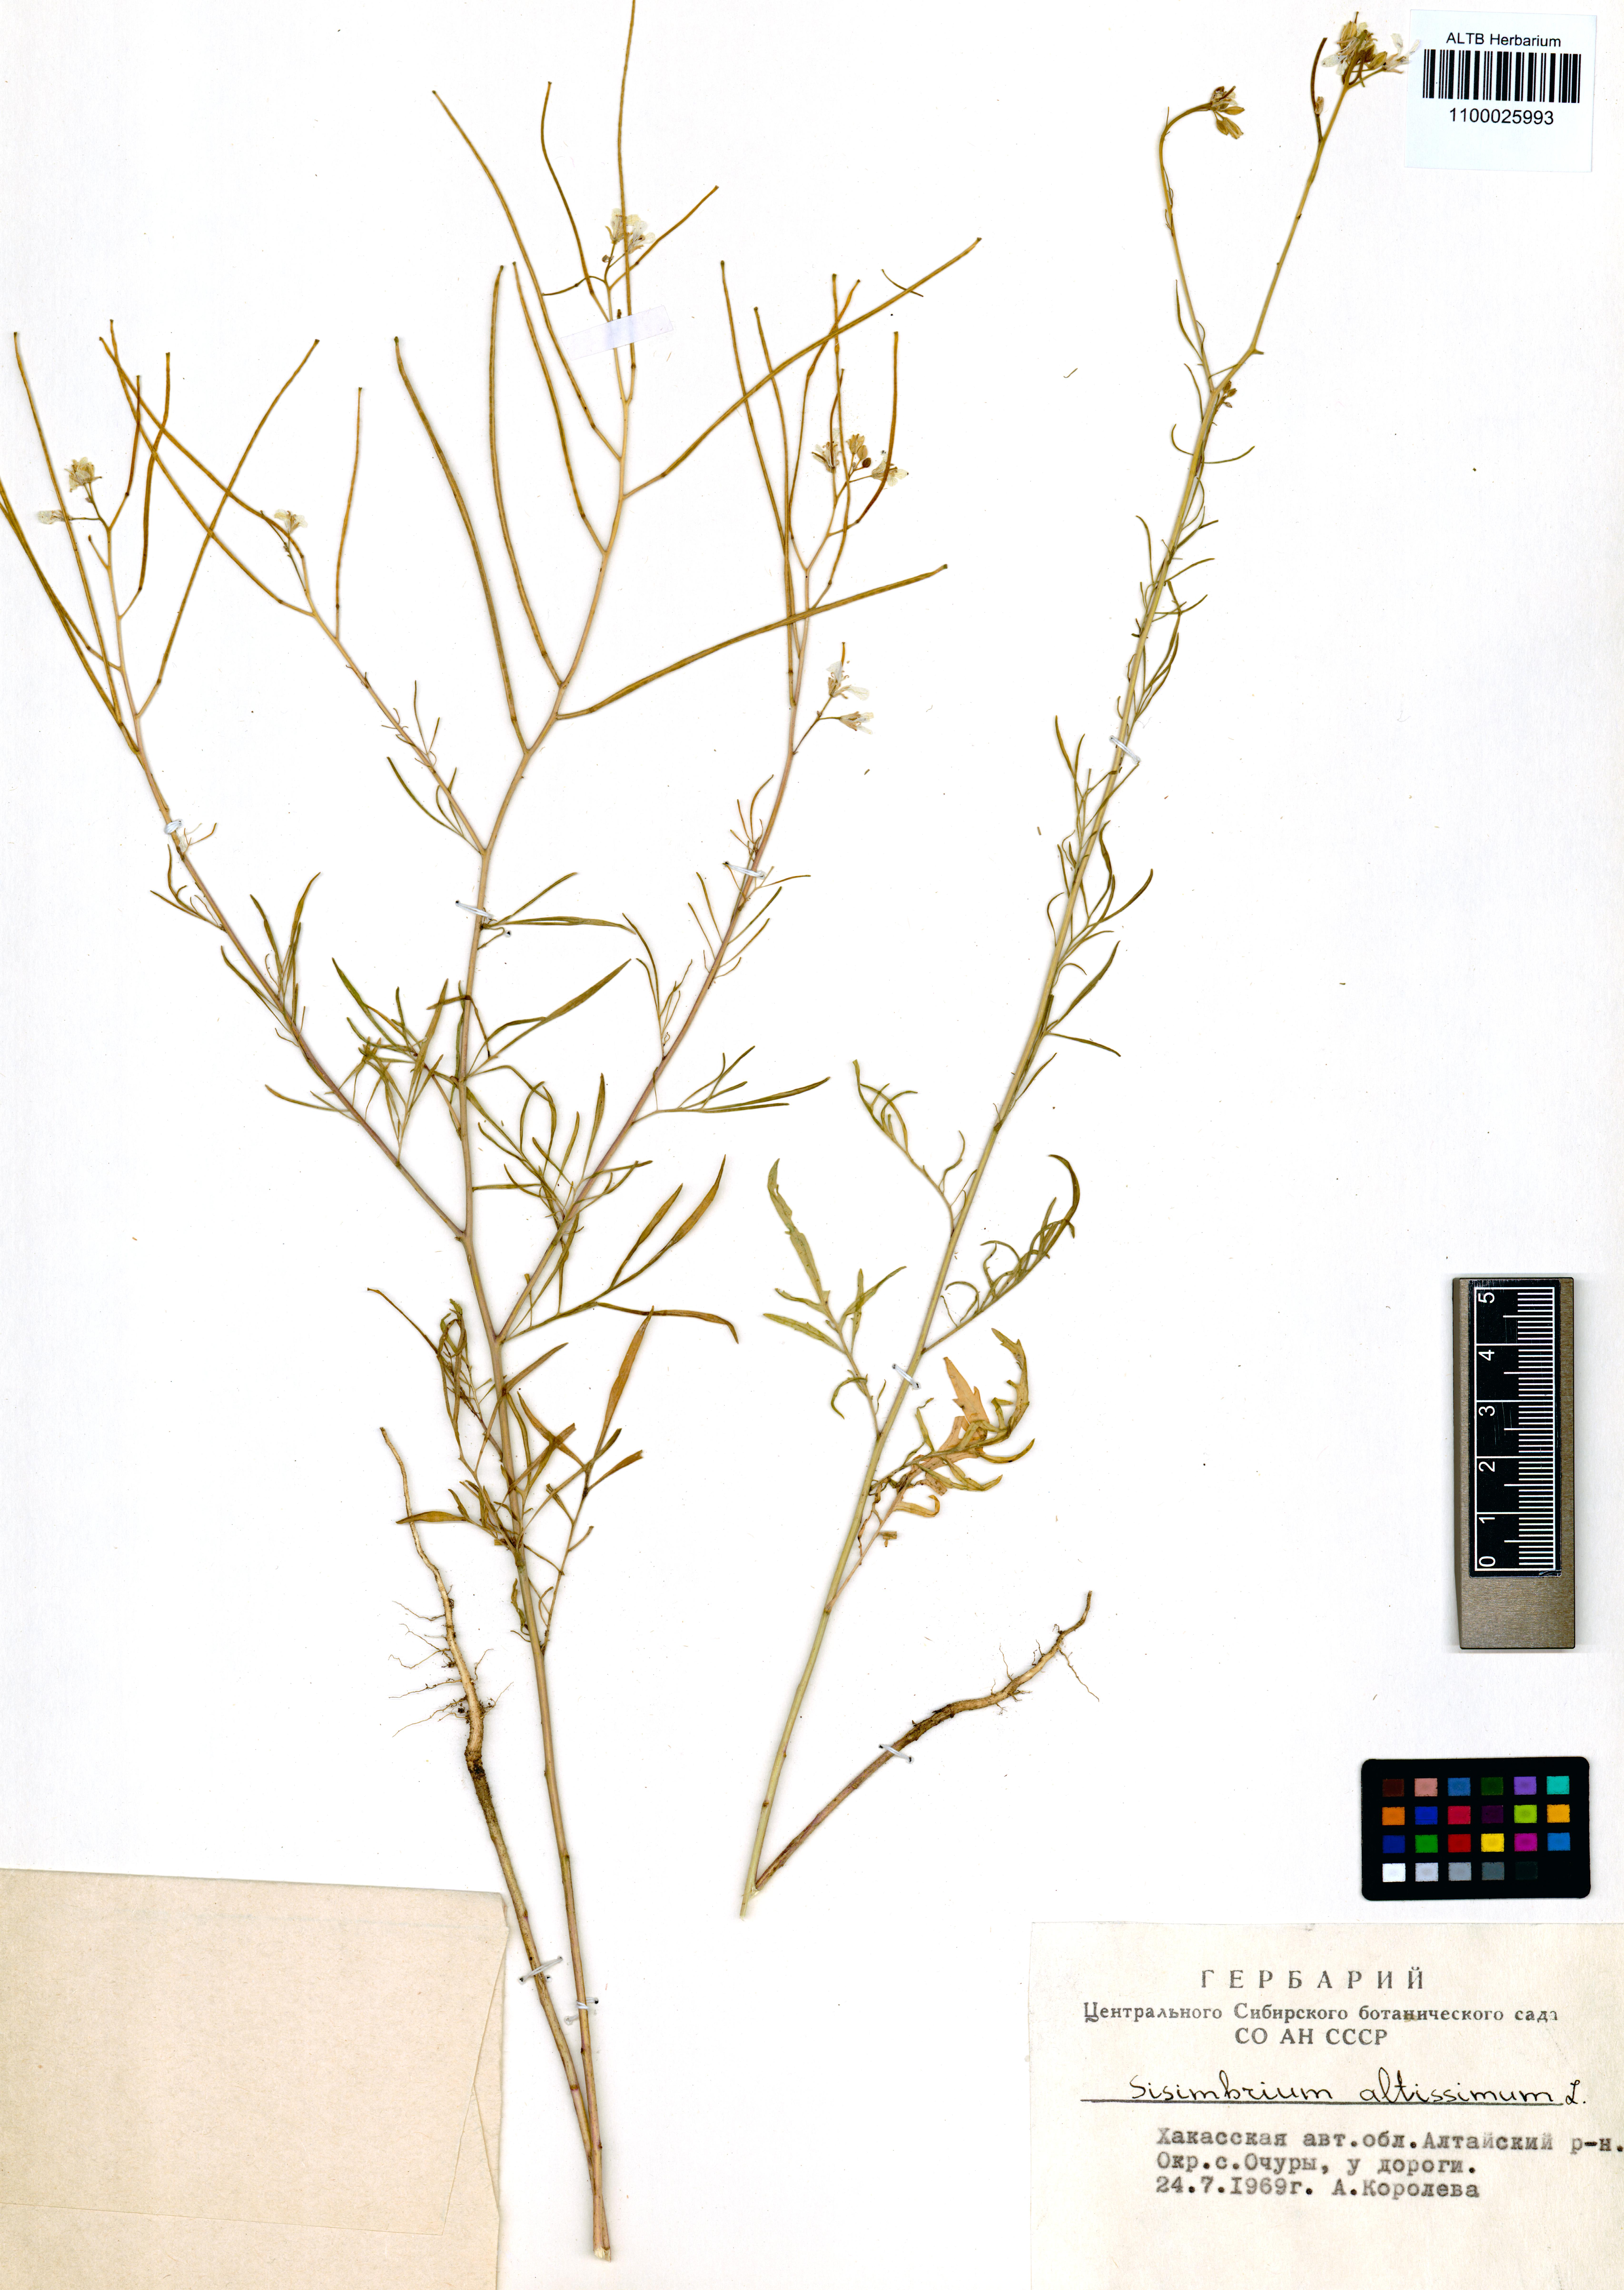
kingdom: Plantae
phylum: Tracheophyta
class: Magnoliopsida
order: Brassicales
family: Brassicaceae
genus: Sisymbrium
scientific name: Sisymbrium altissimum
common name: Tall rocket
